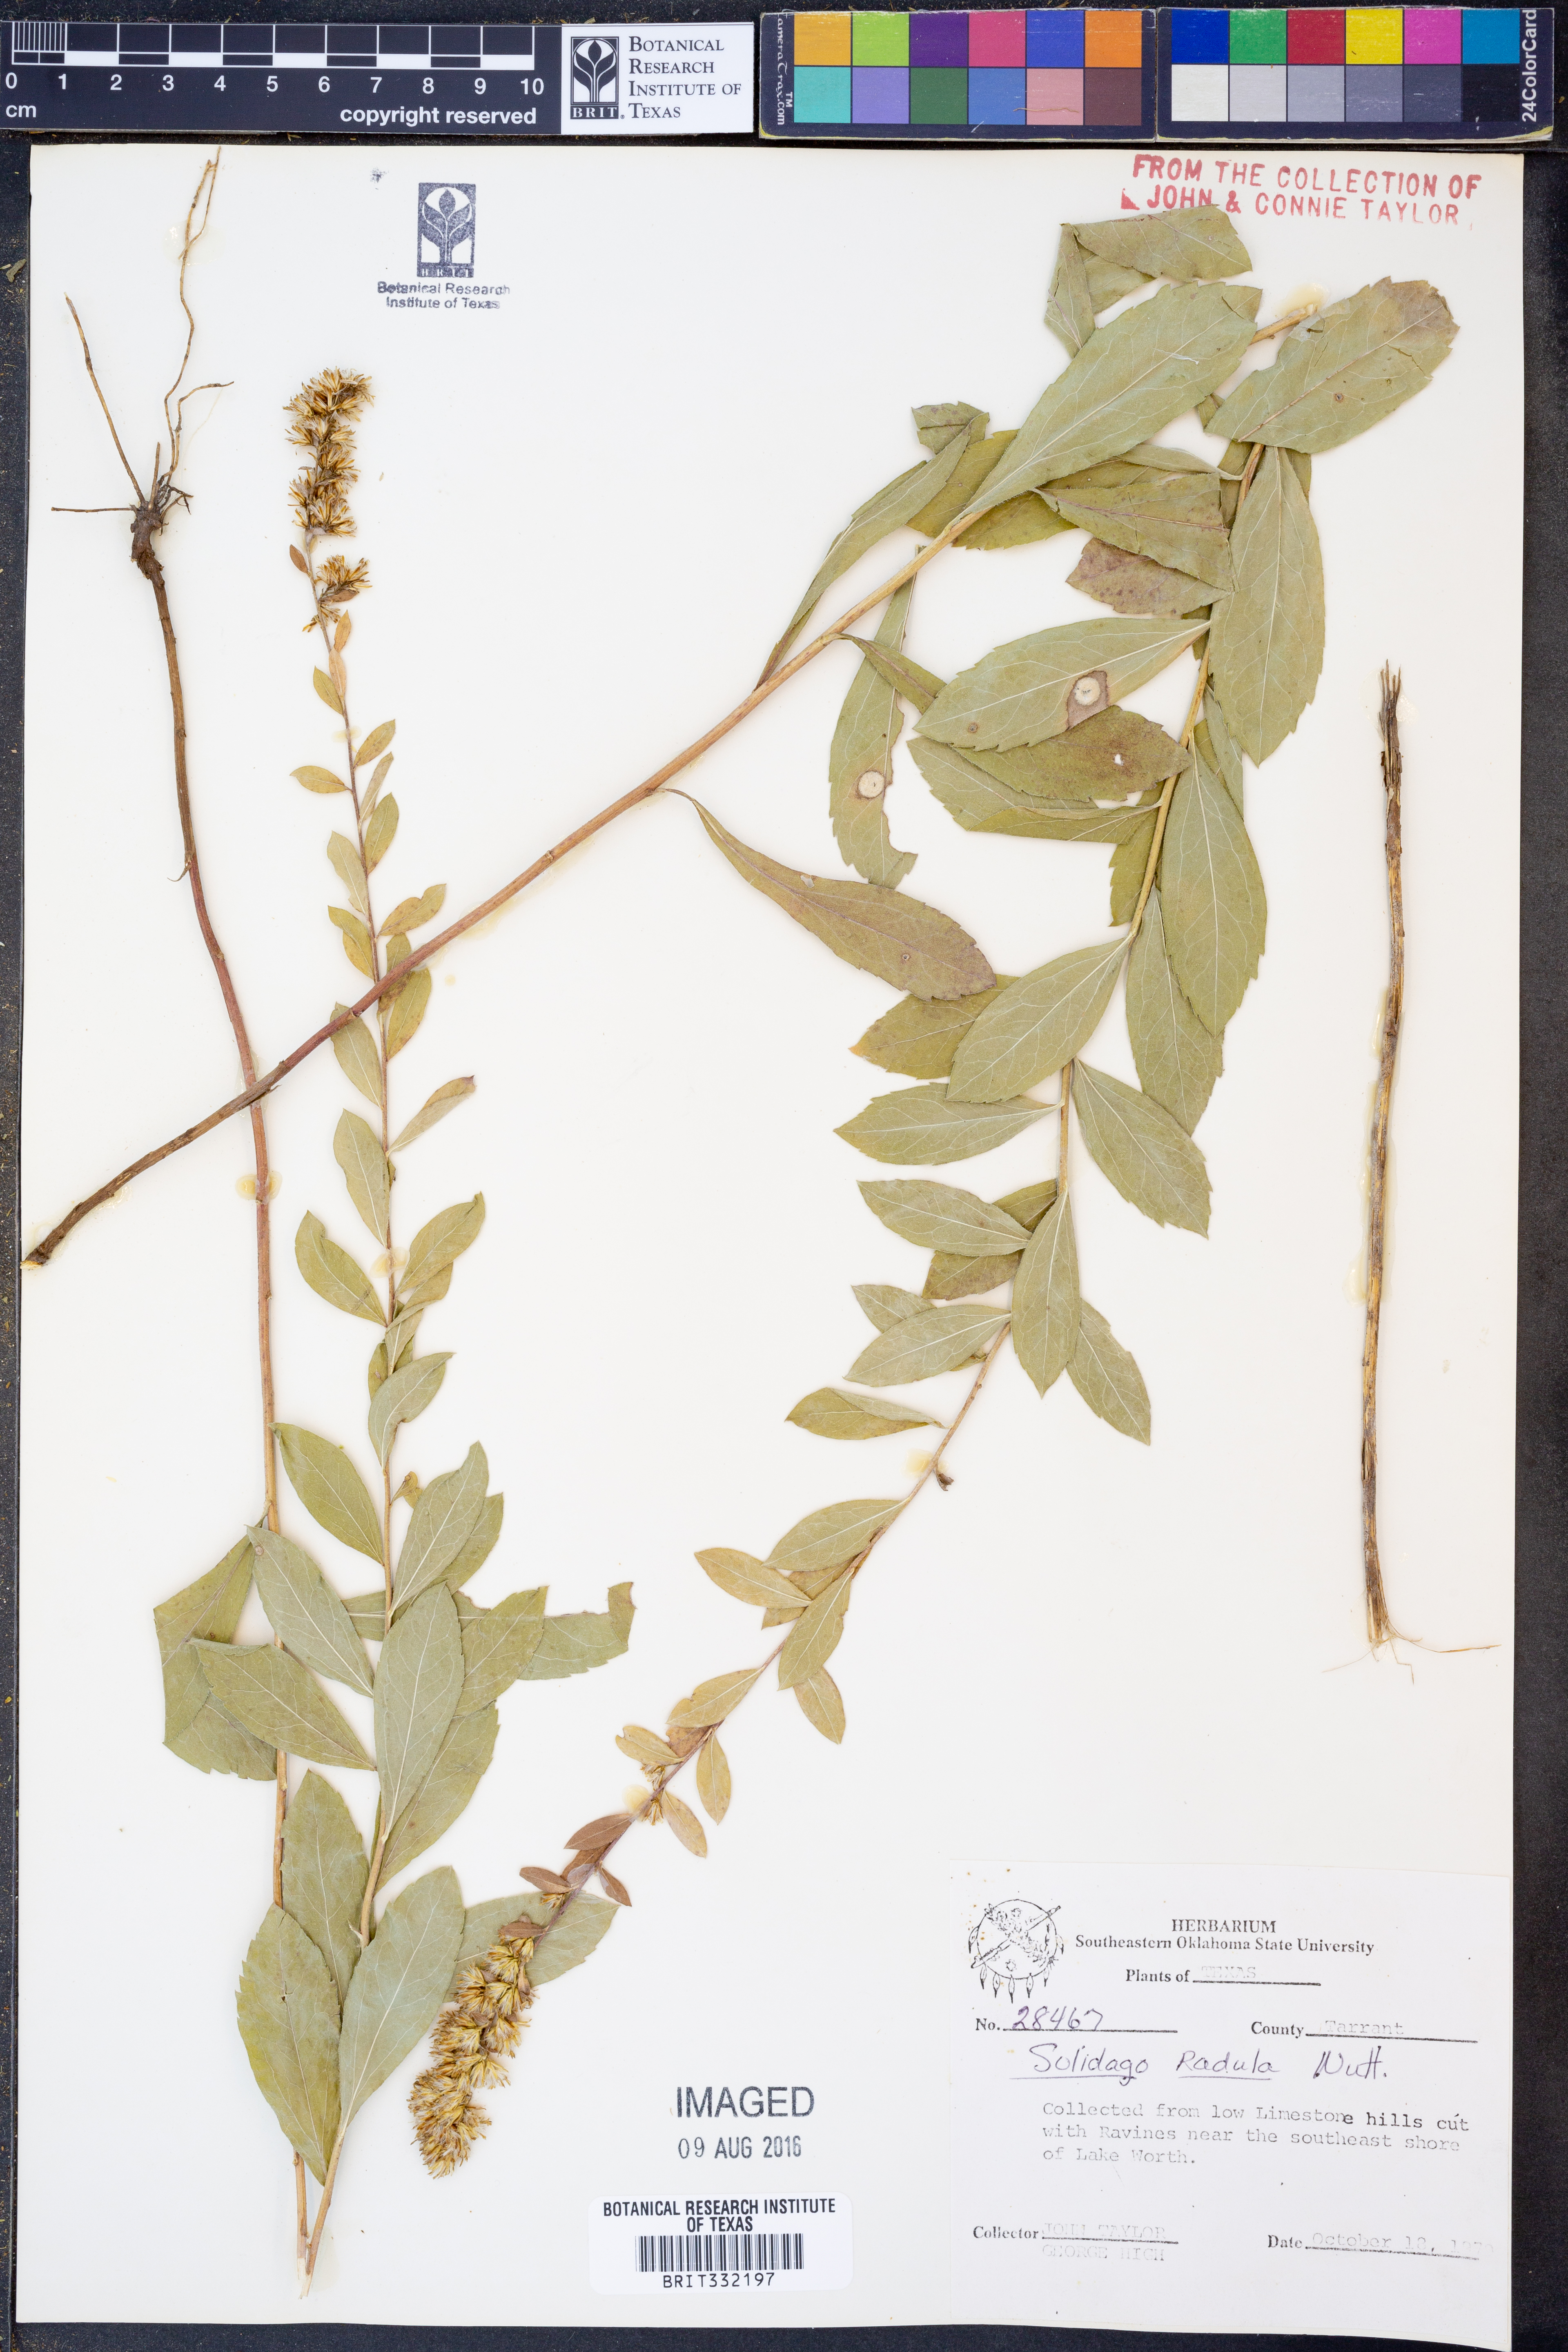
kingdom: Plantae
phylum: Tracheophyta
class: Magnoliopsida
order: Asterales
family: Asteraceae
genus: Solidago
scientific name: Solidago radula
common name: Western rough goldenrod
